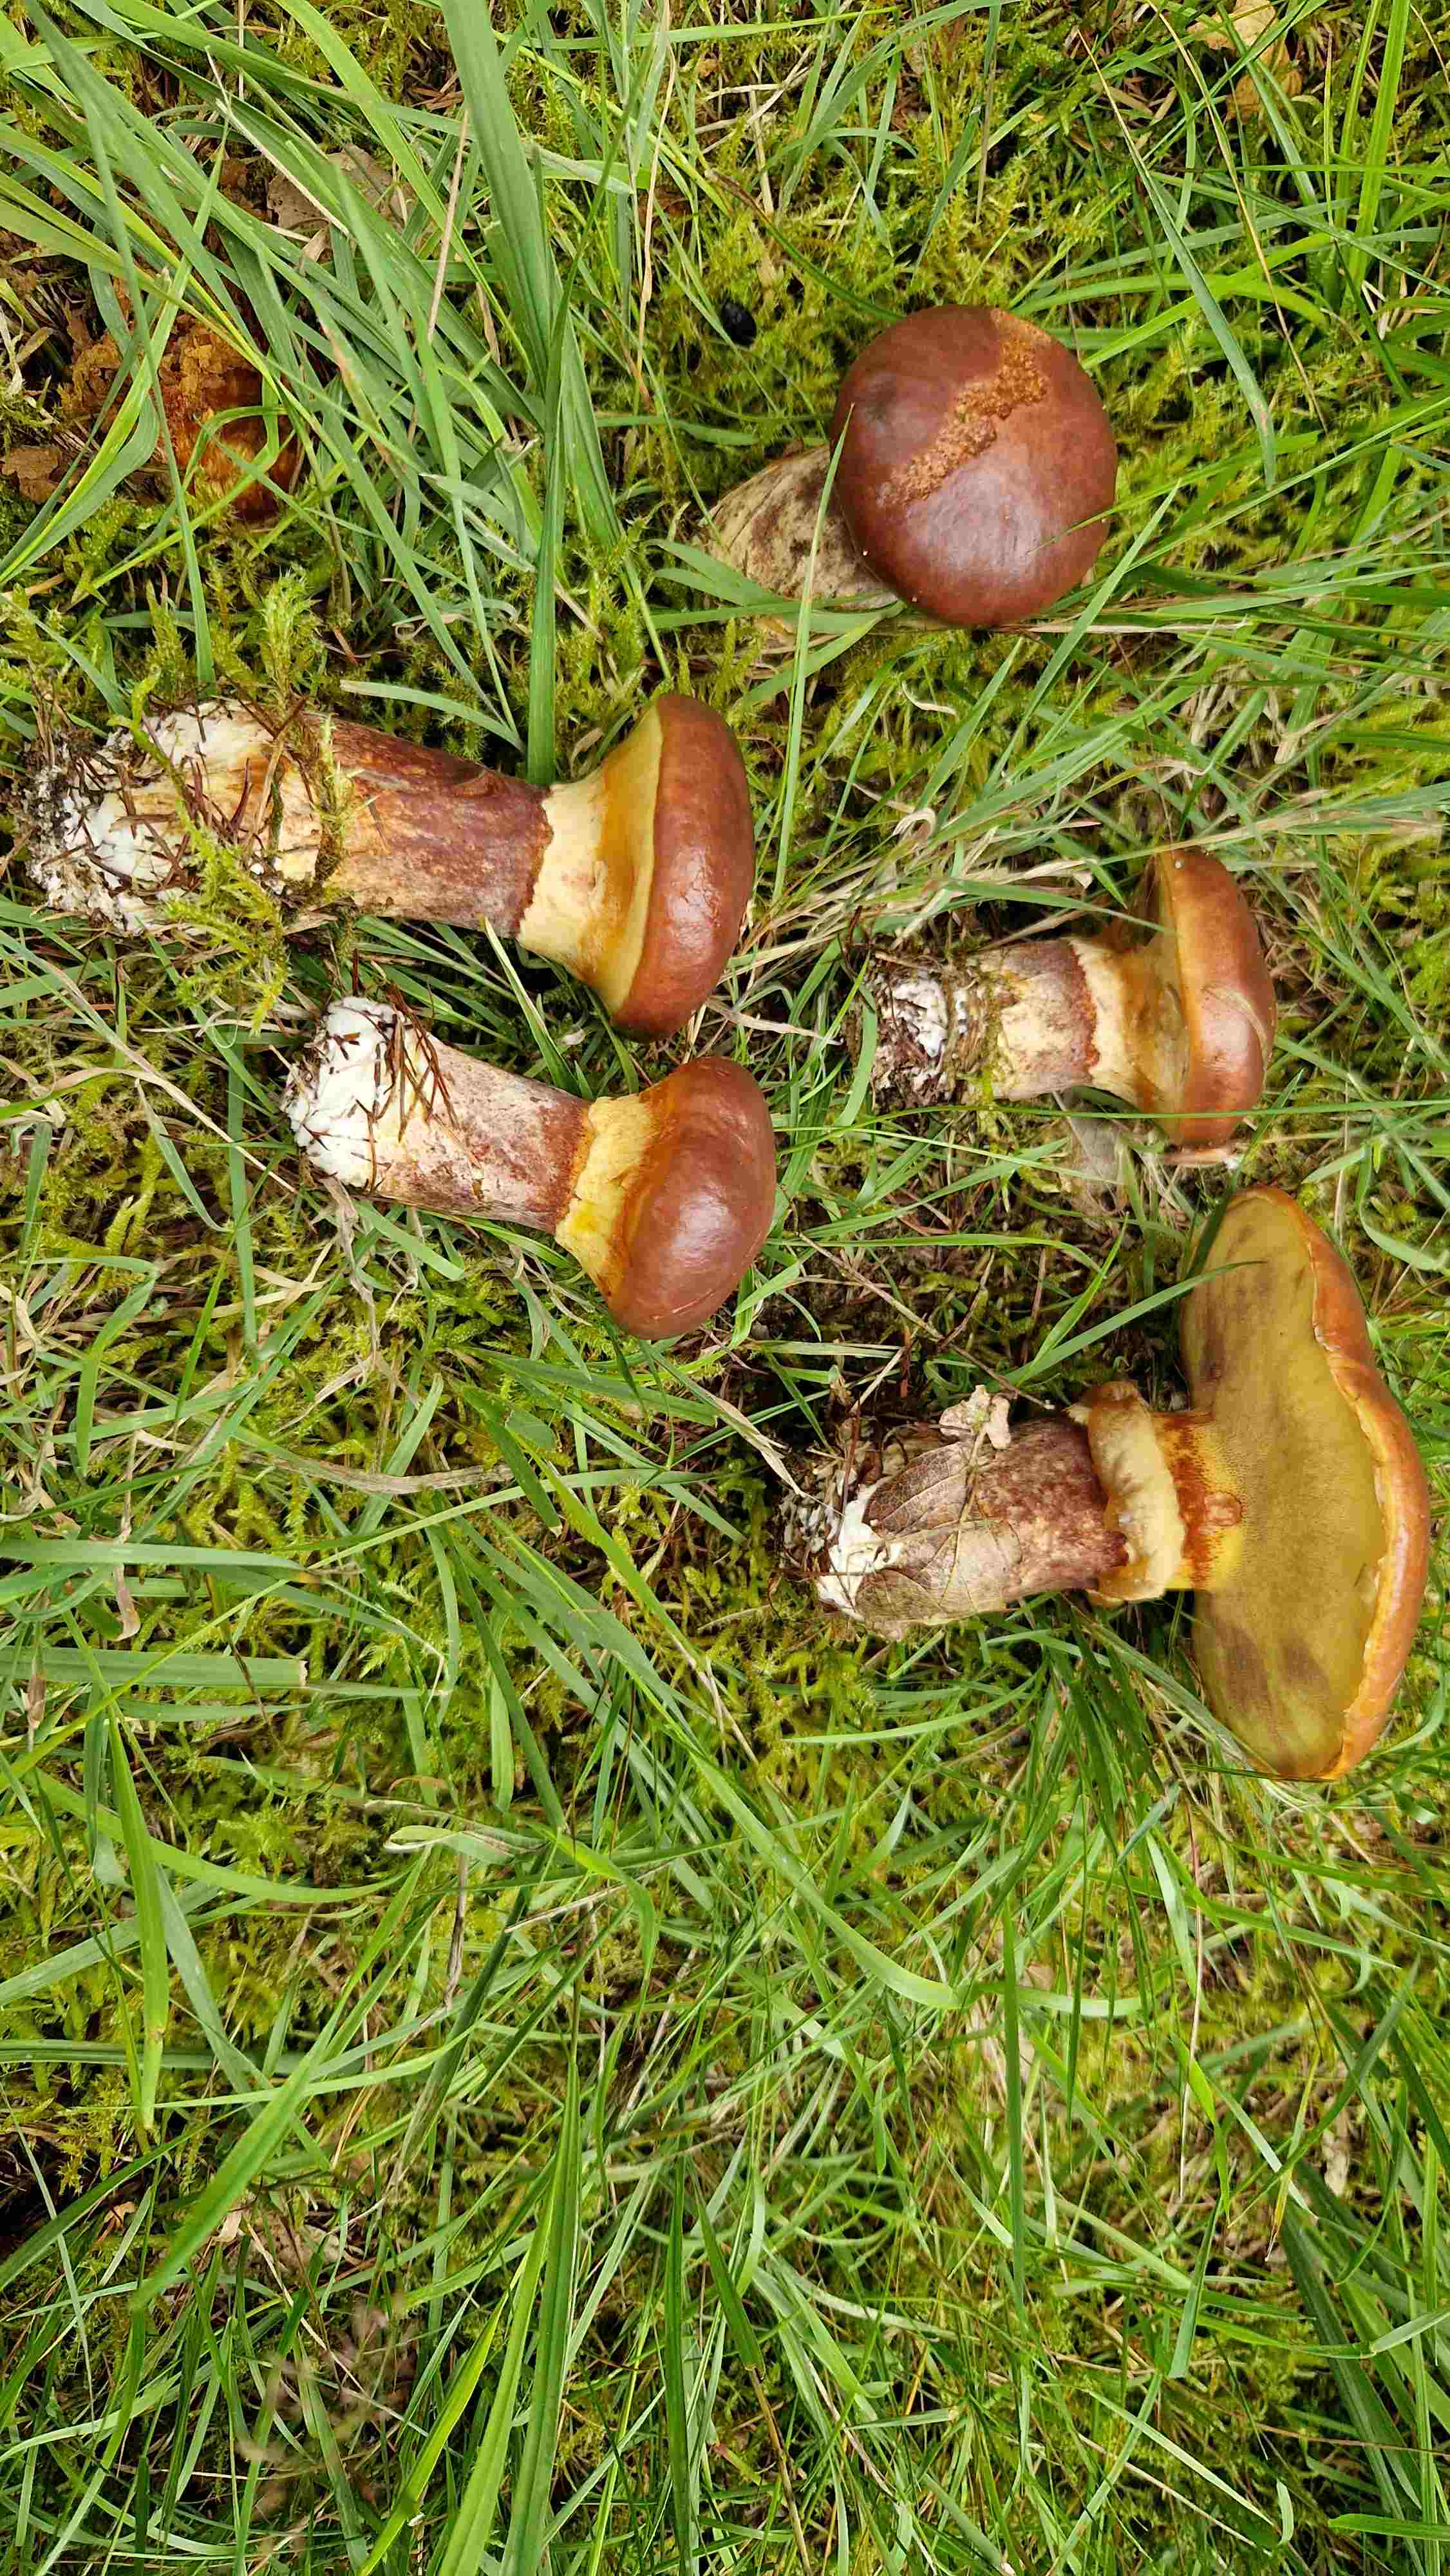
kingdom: Fungi
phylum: Basidiomycota
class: Agaricomycetes
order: Boletales
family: Suillaceae
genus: Suillus
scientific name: Suillus luteus
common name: brungul slimrørhat
